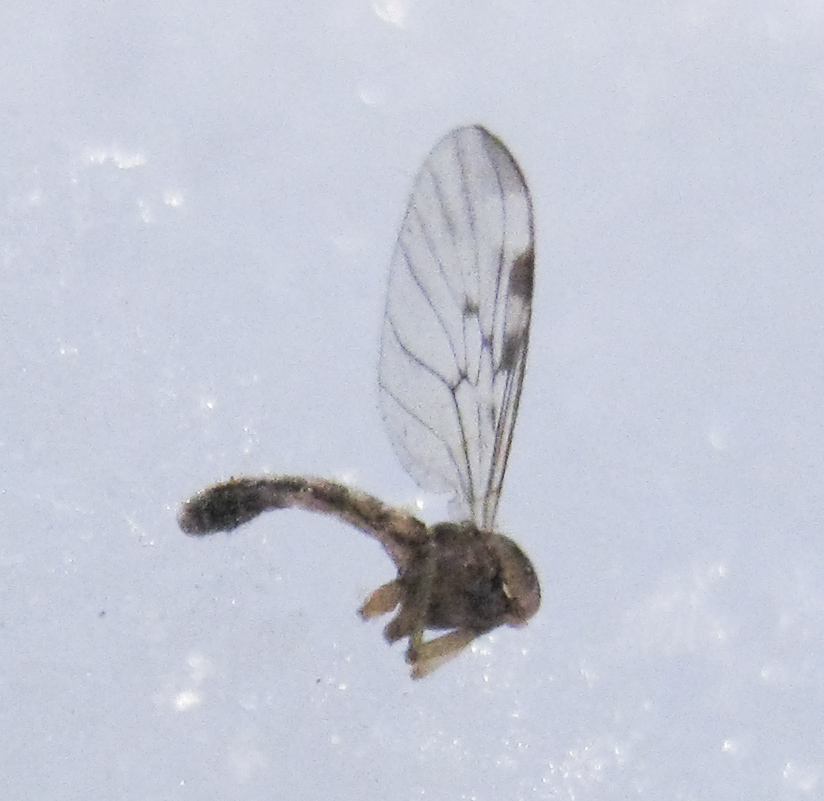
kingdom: Animalia
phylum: Arthropoda
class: Insecta
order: Diptera
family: Anisopodidae
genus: Sylvicola
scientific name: Sylvicola
